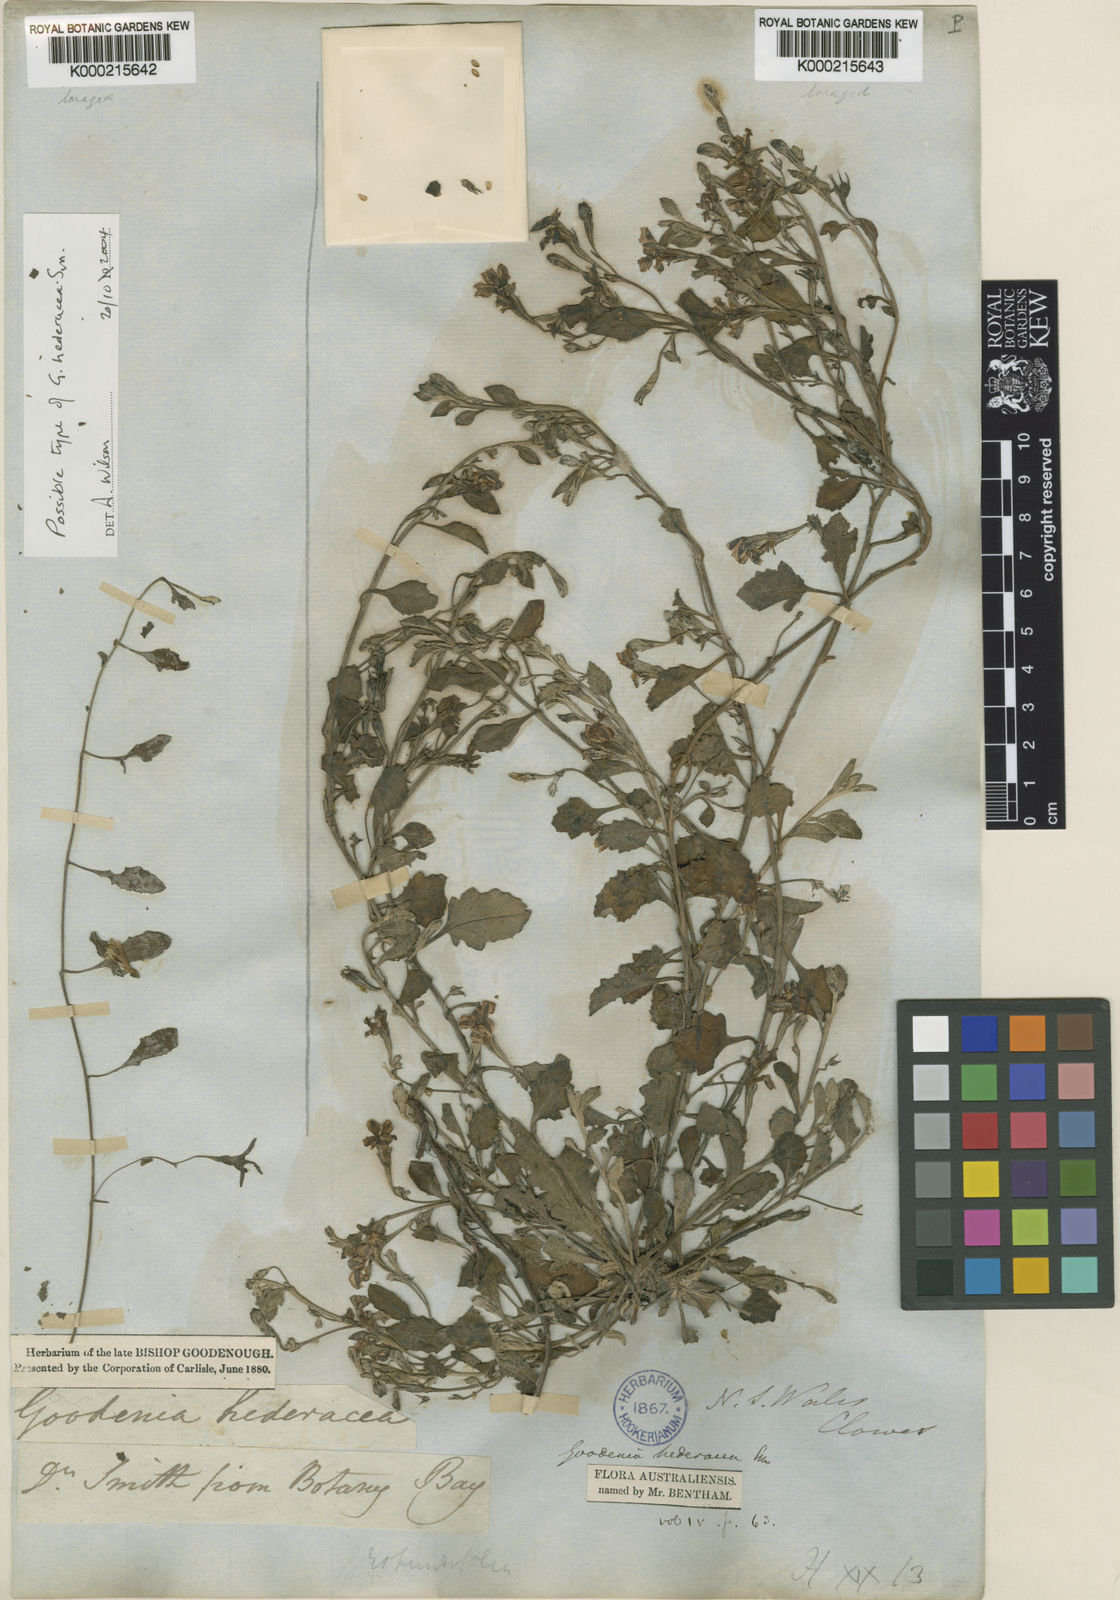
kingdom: Plantae
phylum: Tracheophyta
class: Magnoliopsida
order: Asterales
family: Goodeniaceae
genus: Goodenia
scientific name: Goodenia hederacea
